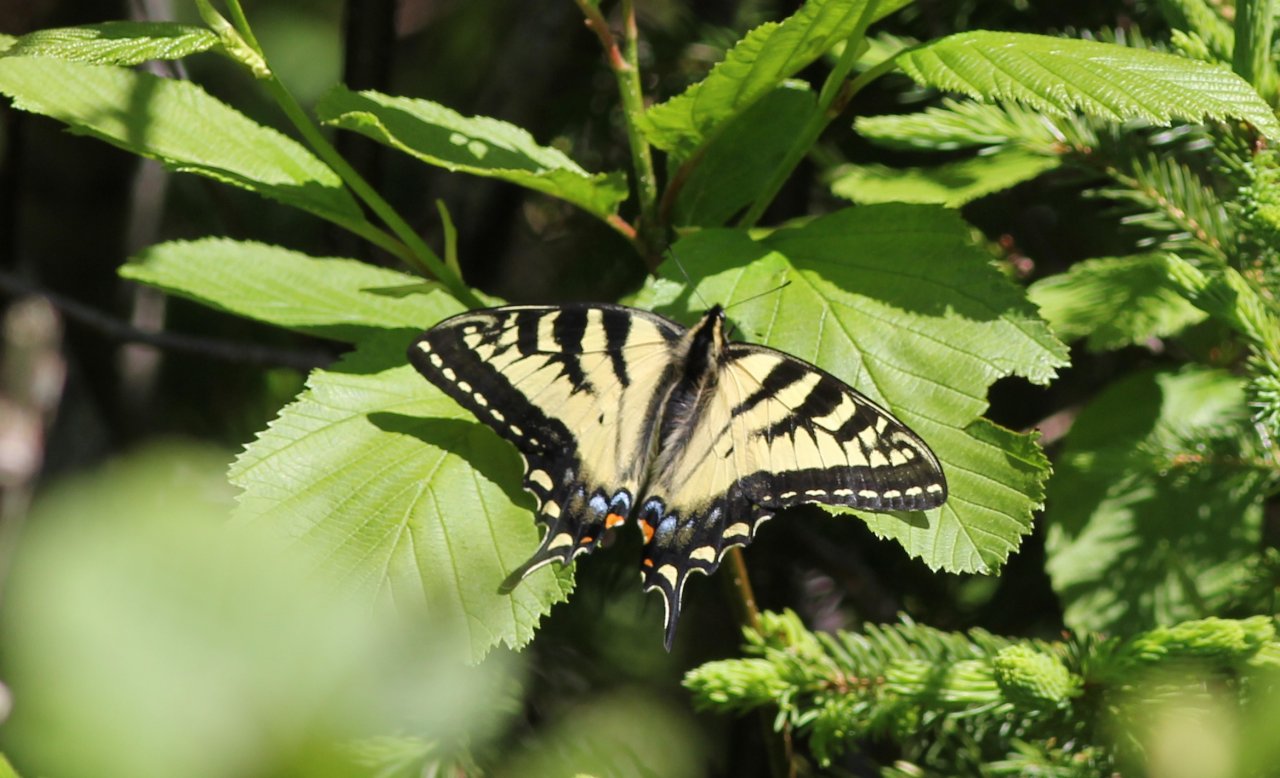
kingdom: Animalia
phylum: Arthropoda
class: Insecta
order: Lepidoptera
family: Papilionidae
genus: Pterourus
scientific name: Pterourus canadensis
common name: Canadian Tiger Swallowtail
